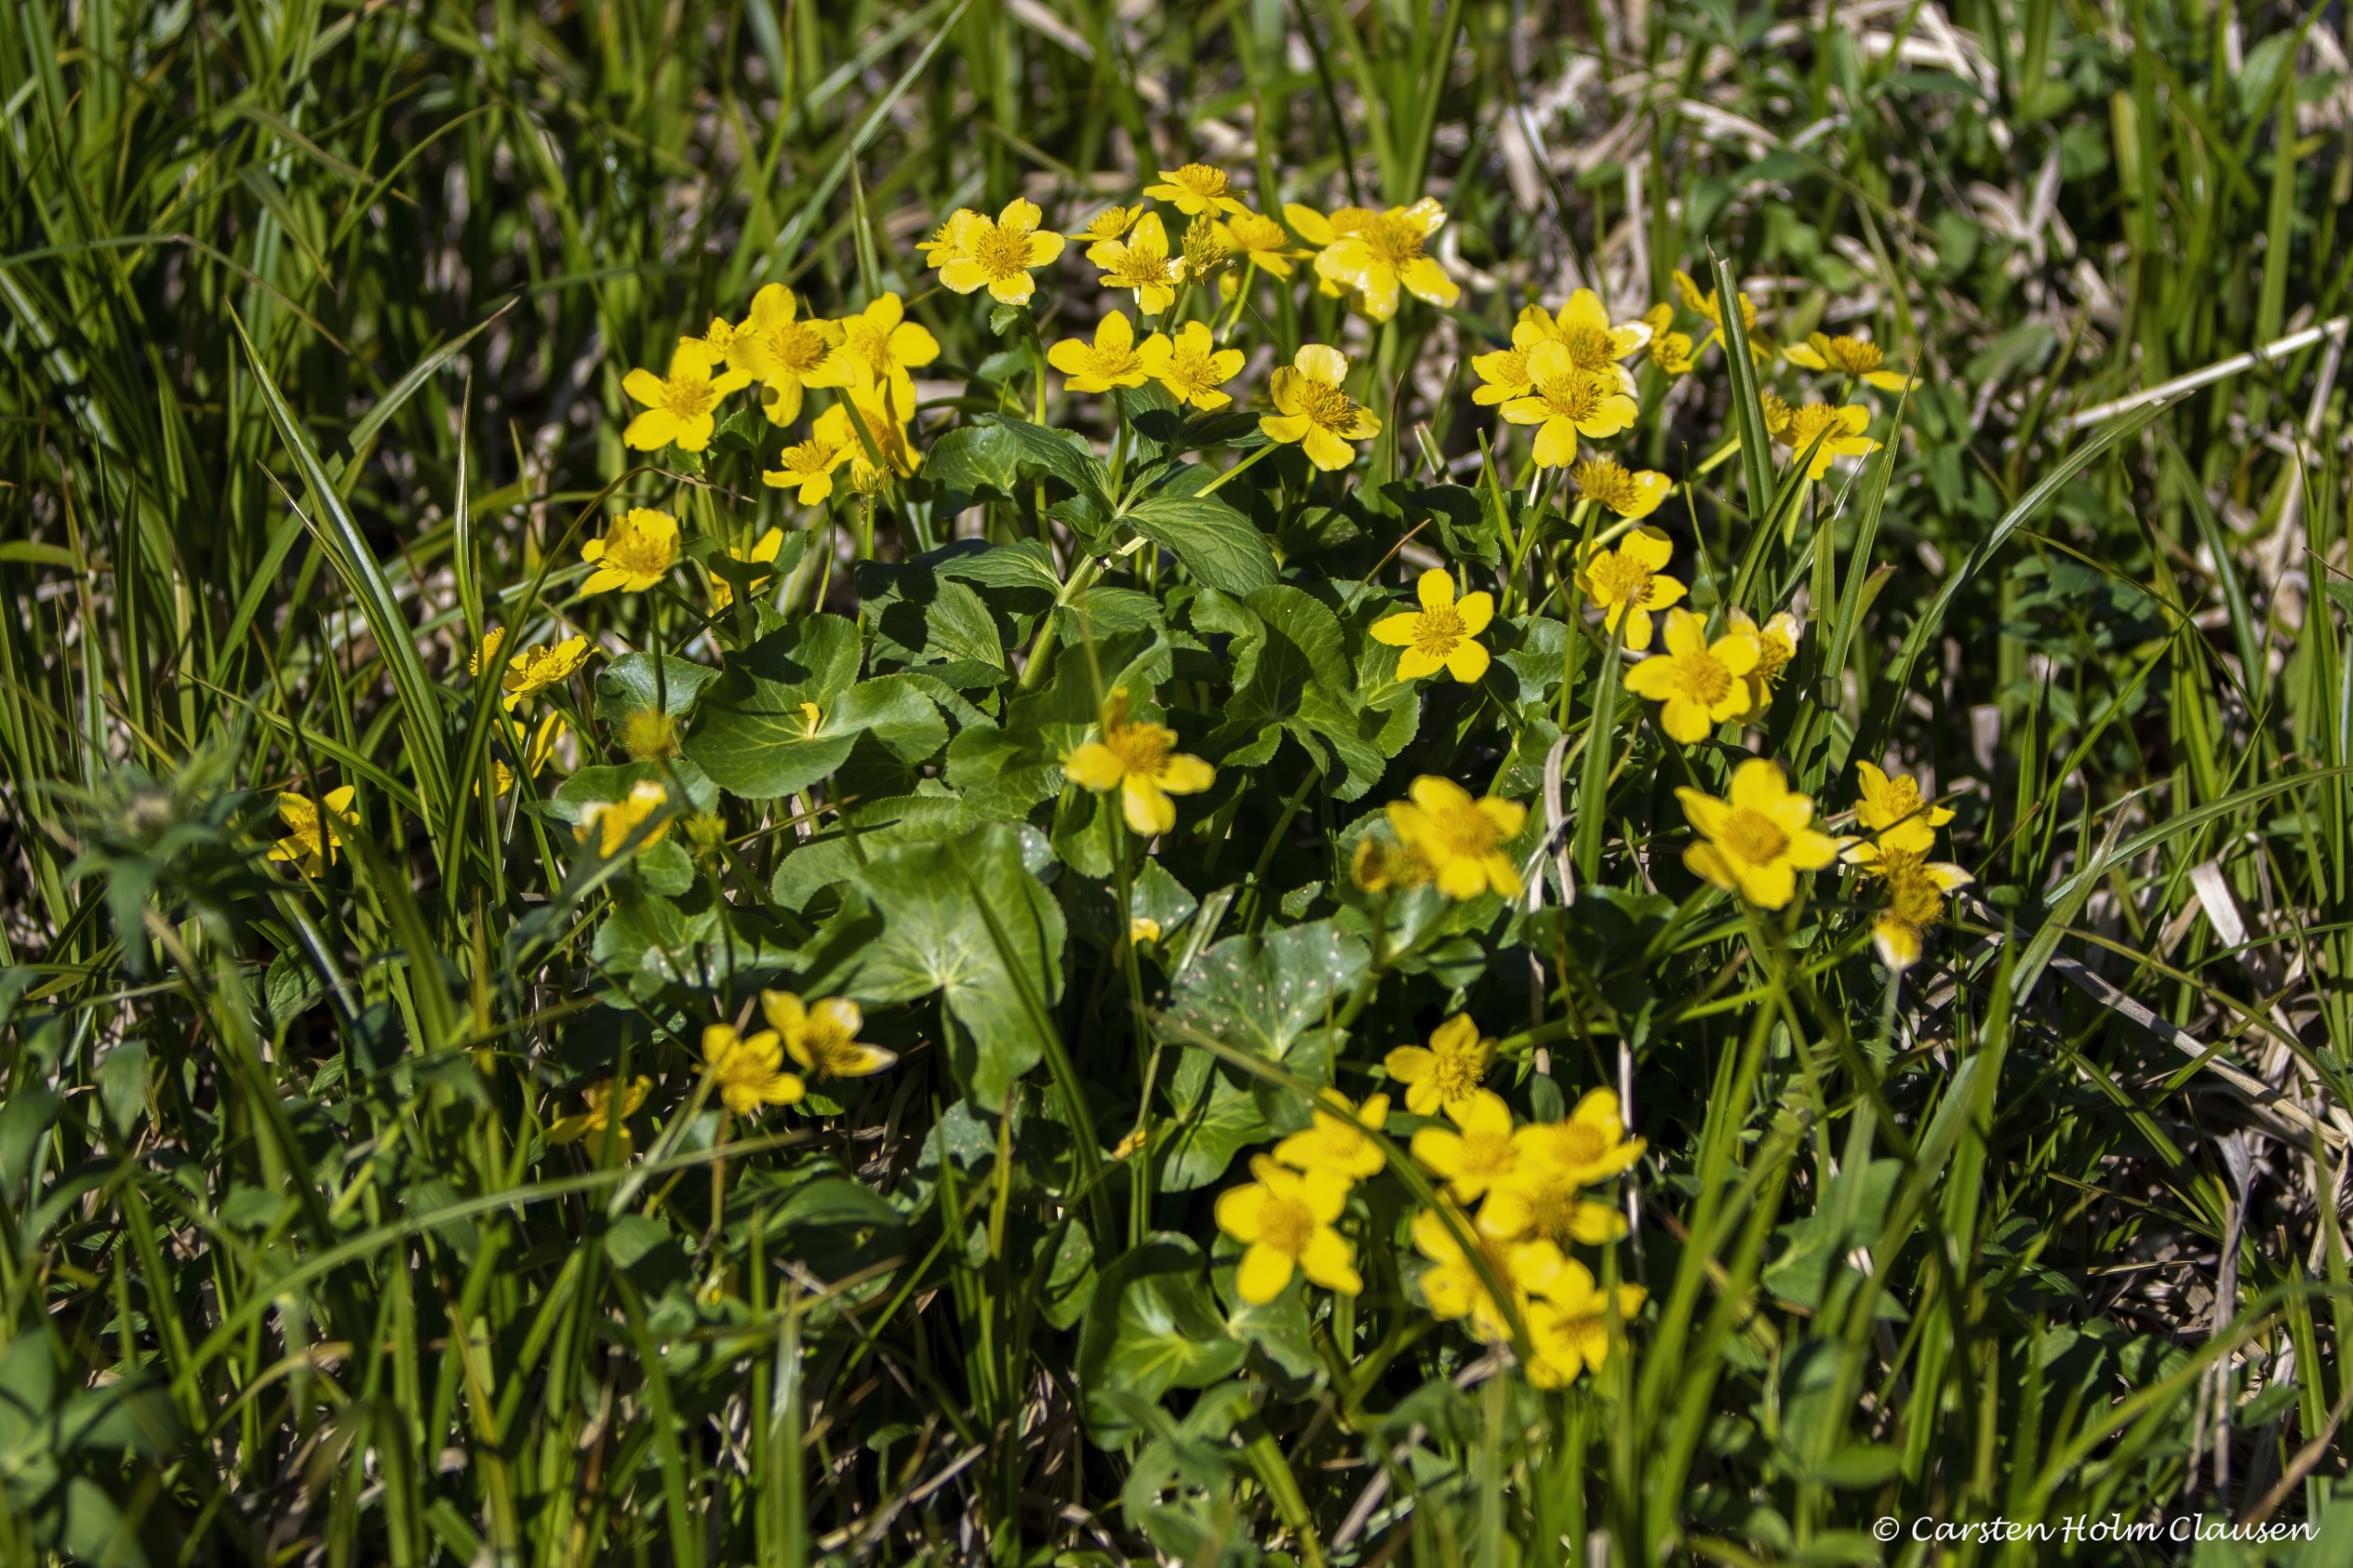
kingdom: Plantae
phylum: Tracheophyta
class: Magnoliopsida
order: Ranunculales
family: Ranunculaceae
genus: Caltha
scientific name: Caltha palustris
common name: Eng-kabbeleje
